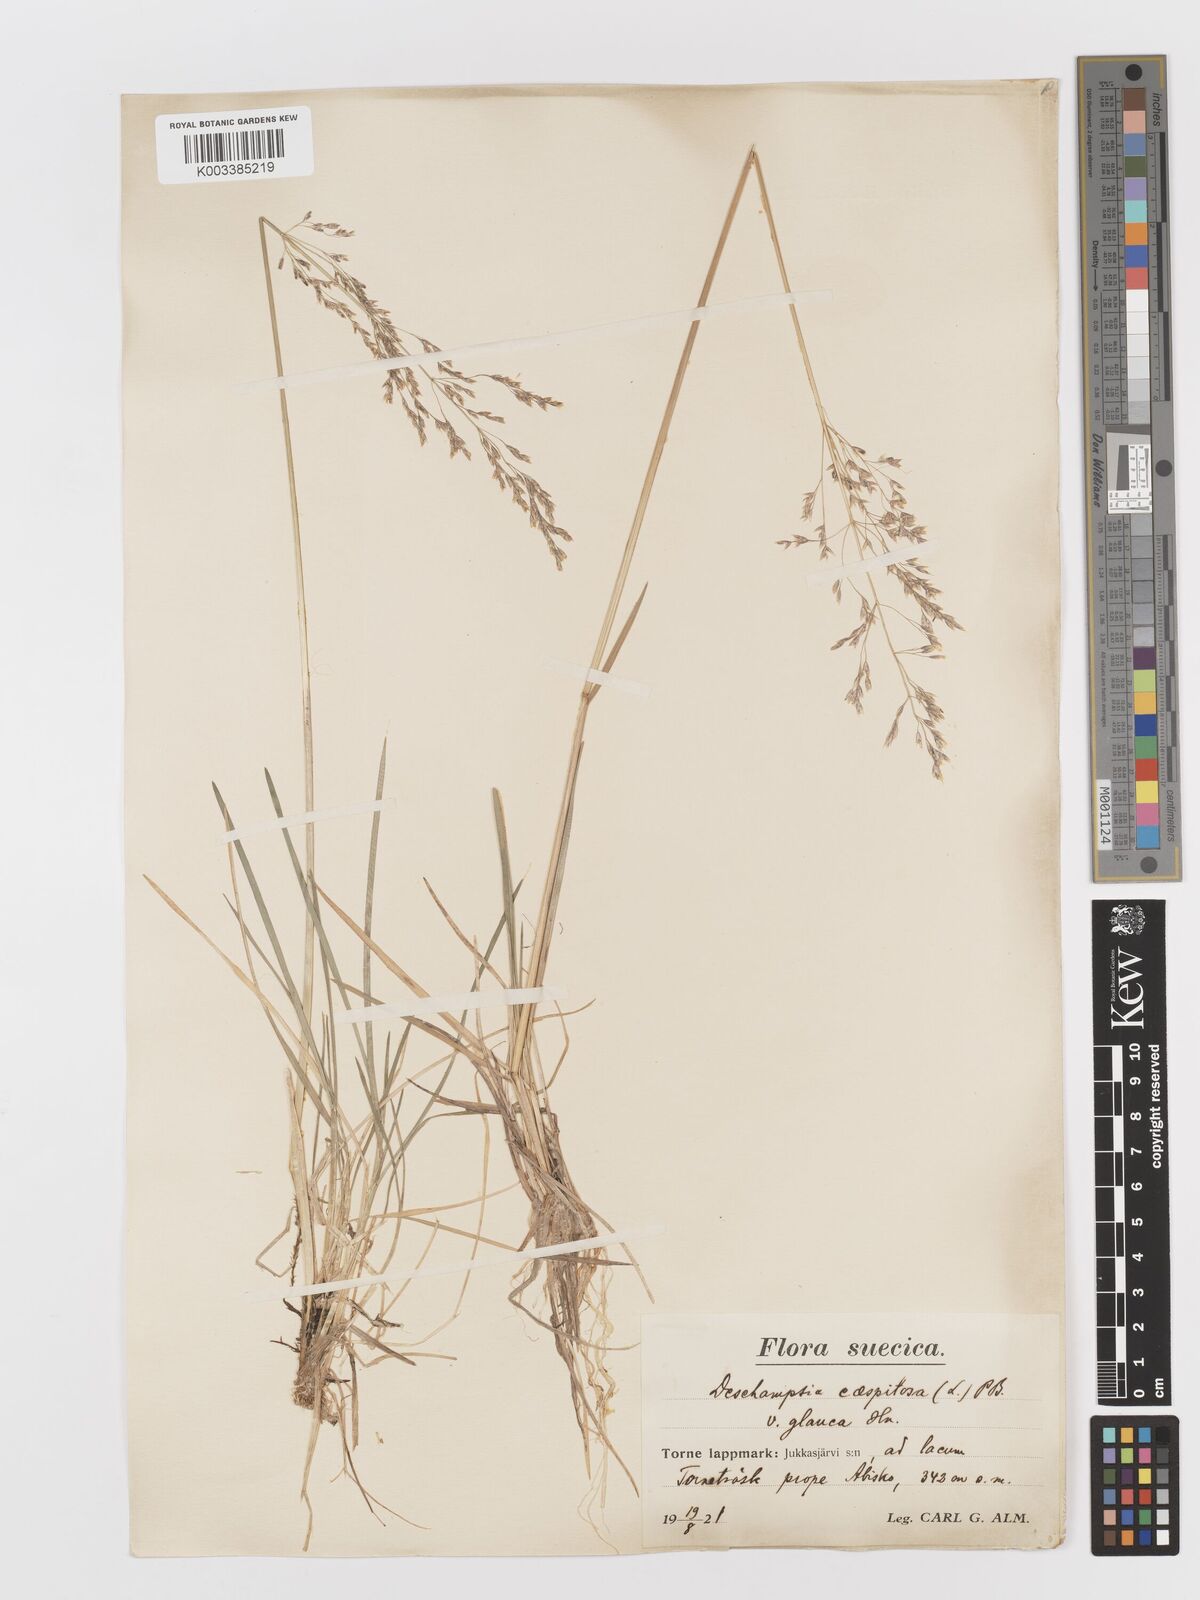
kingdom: Plantae
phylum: Tracheophyta
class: Liliopsida
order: Poales
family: Poaceae
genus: Deschampsia
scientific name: Deschampsia cespitosa
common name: Tufted hair-grass
